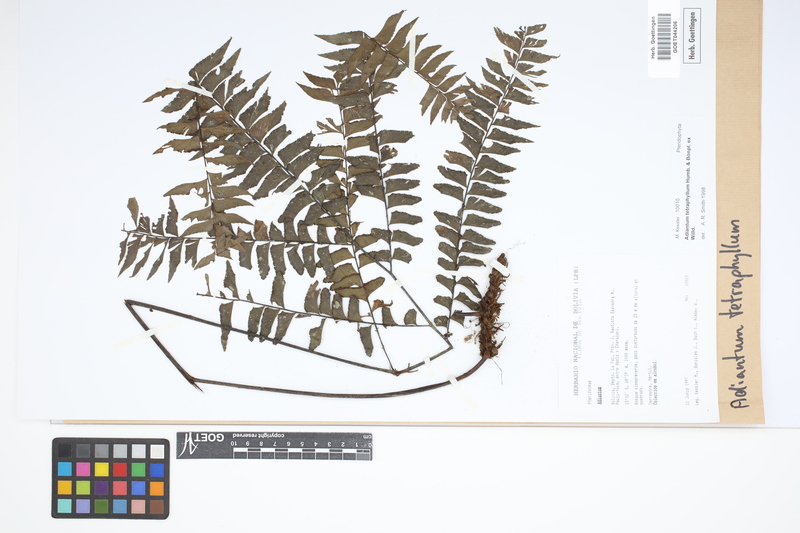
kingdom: Plantae
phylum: Tracheophyta
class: Polypodiopsida
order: Polypodiales
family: Pteridaceae
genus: Adiantum
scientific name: Adiantum tetraphyllum
